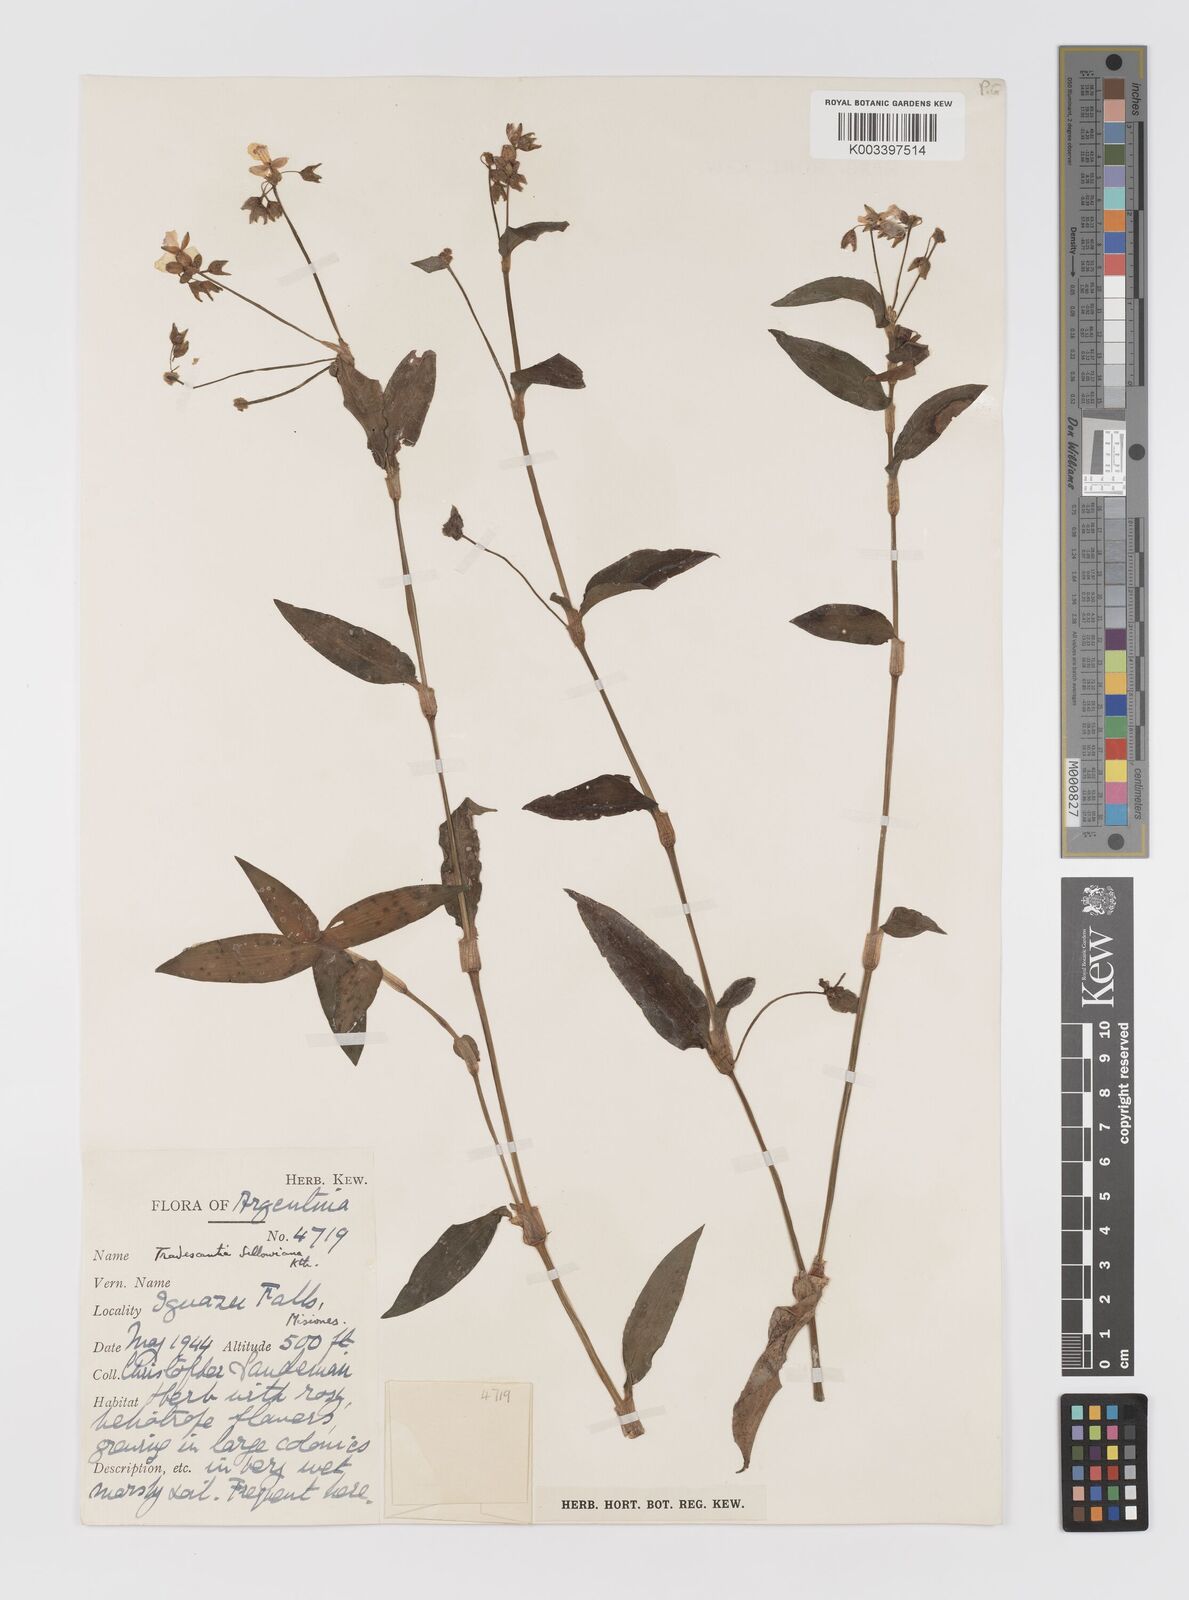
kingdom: Plantae
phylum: Tracheophyta
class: Liliopsida
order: Commelinales
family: Commelinaceae
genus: Callisia
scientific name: Callisia serrulata
